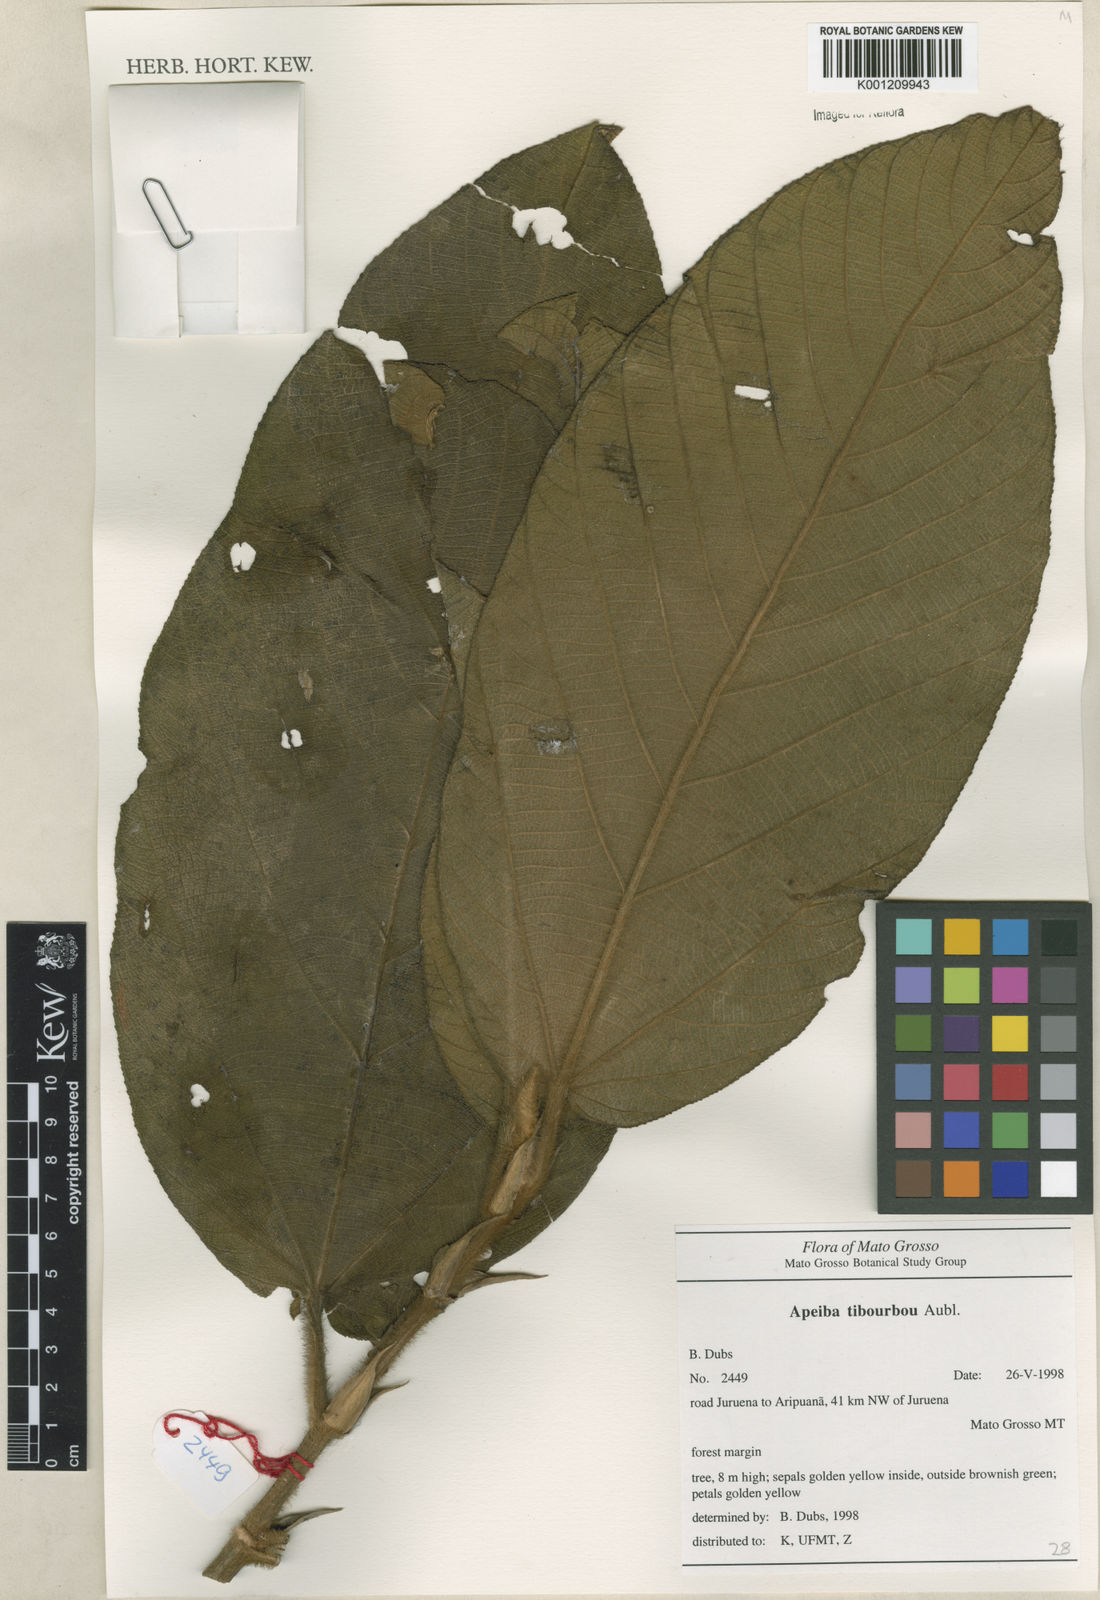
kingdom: Plantae
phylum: Tracheophyta
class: Magnoliopsida
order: Malvales
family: Malvaceae
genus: Apeiba
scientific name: Apeiba tibourbou
